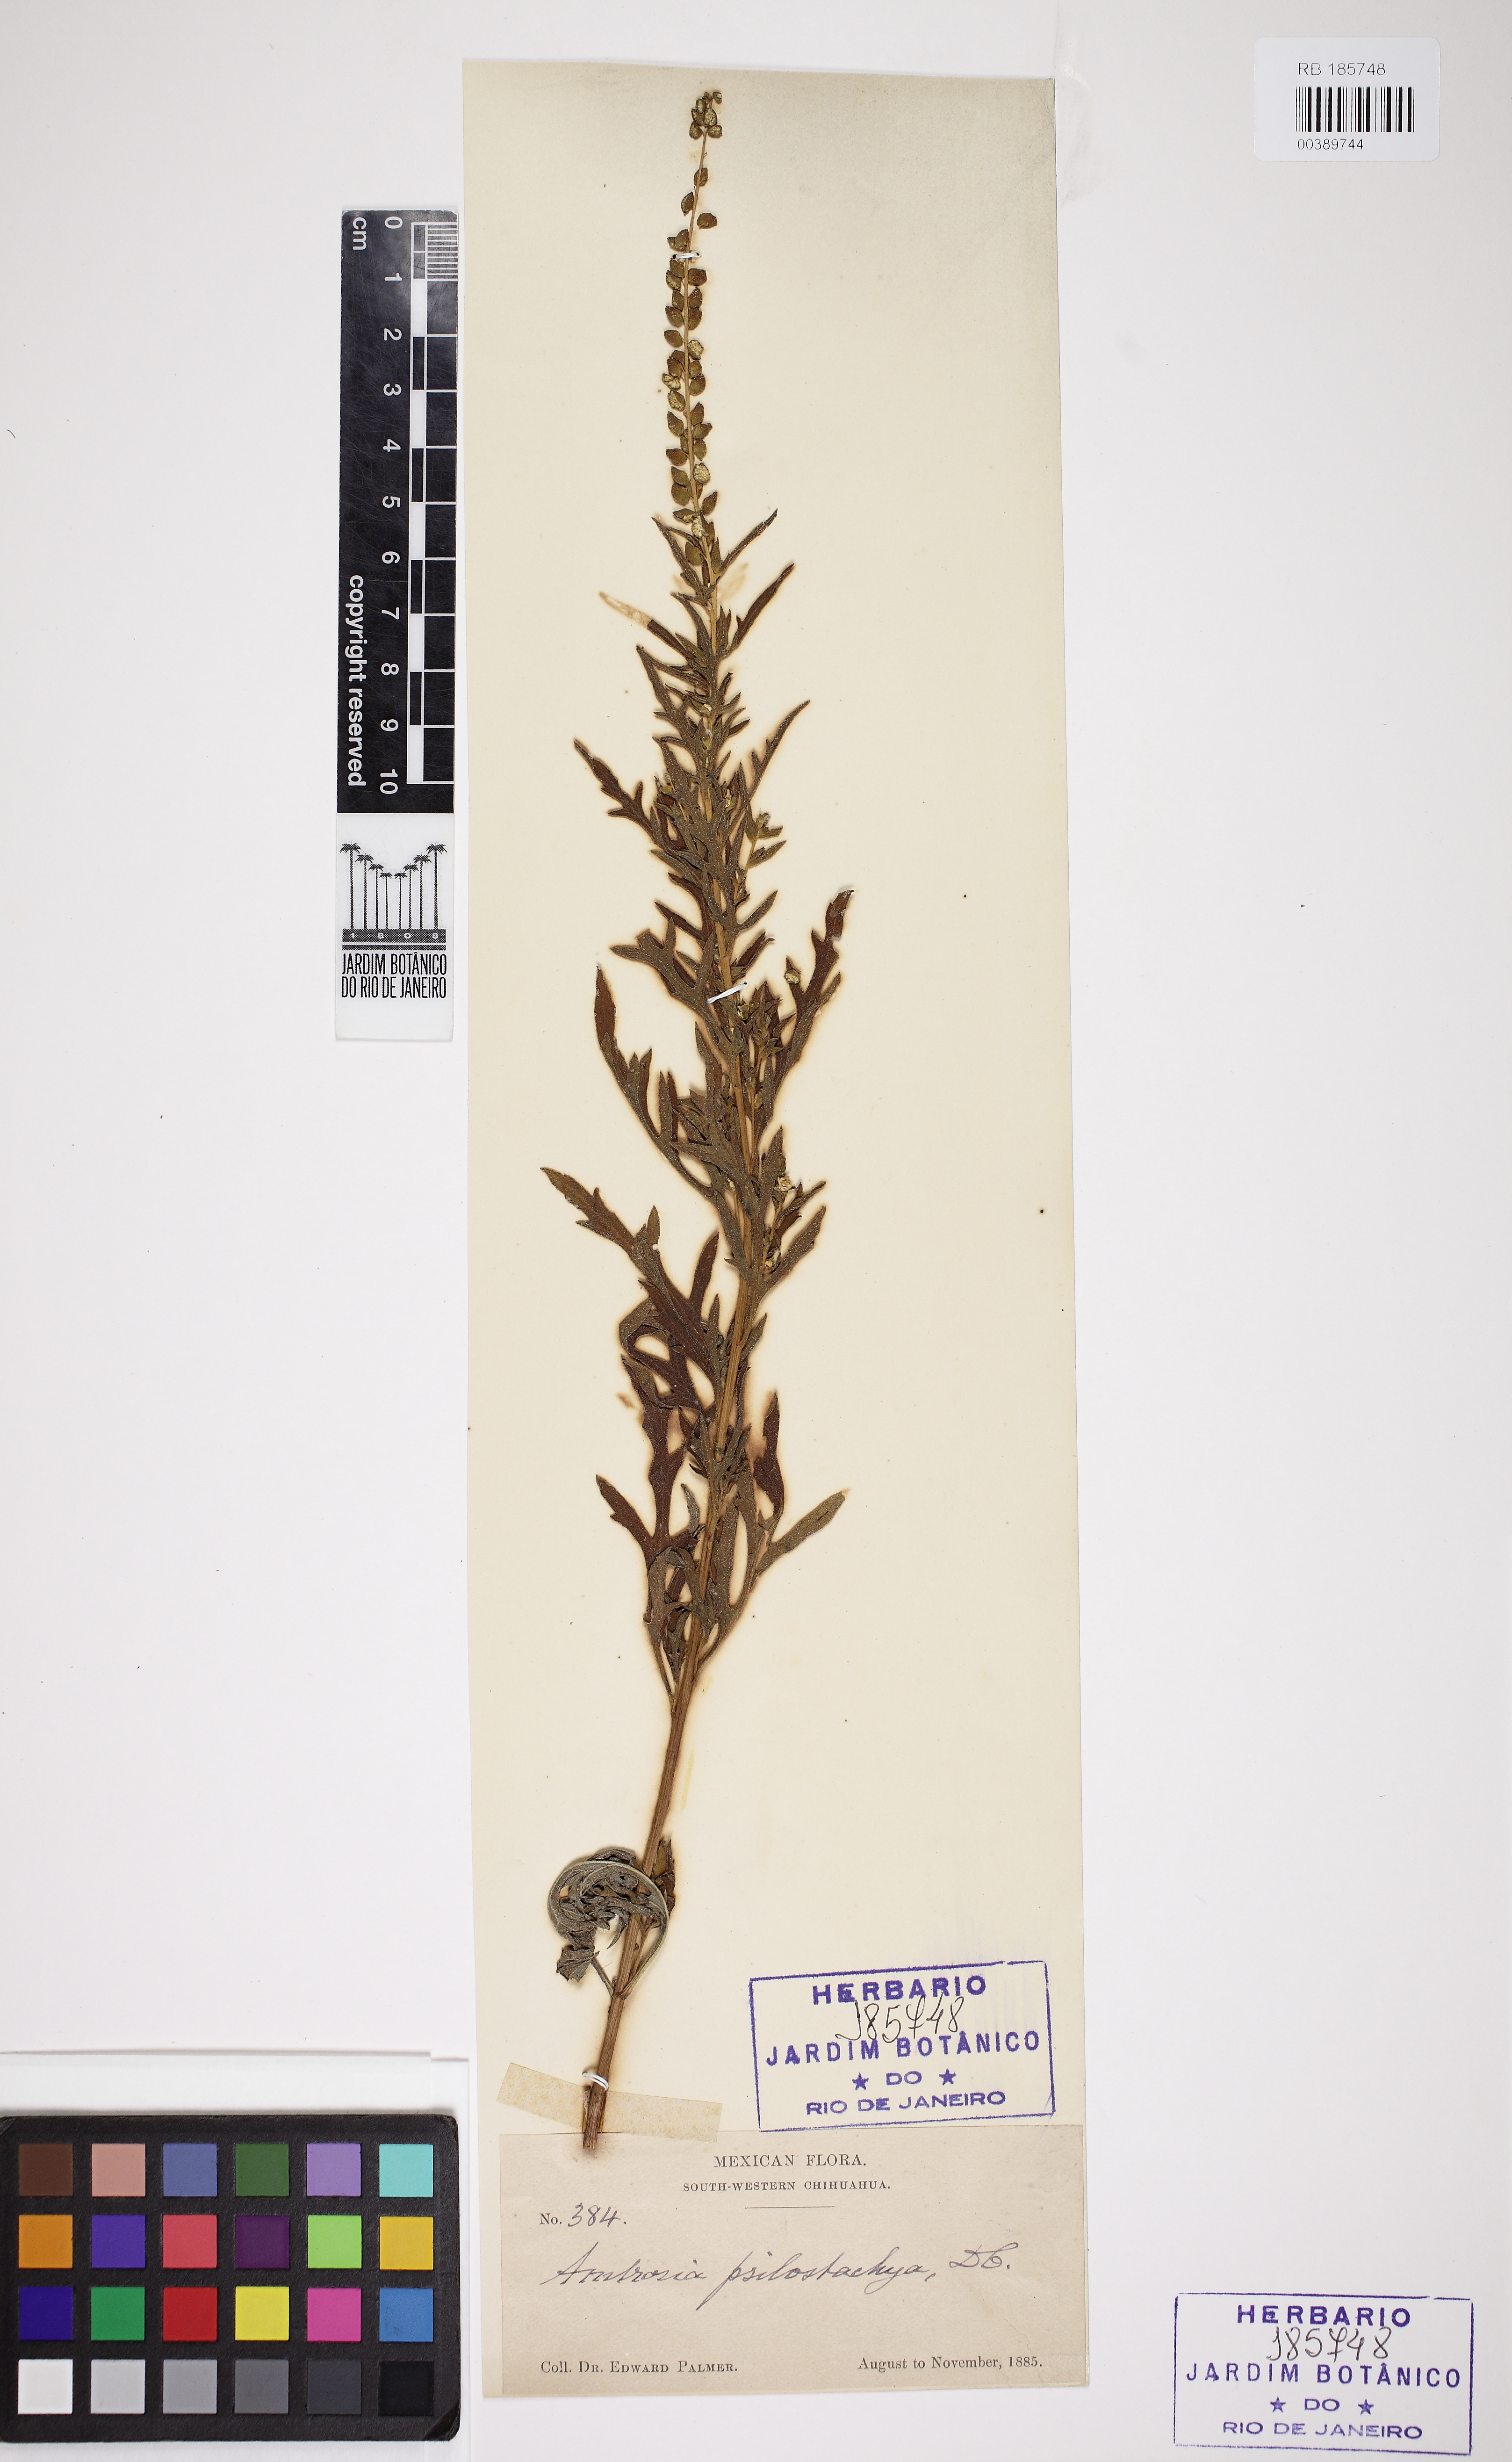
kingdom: Plantae
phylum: Tracheophyta
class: Magnoliopsida
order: Asterales
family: Asteraceae
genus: Artemisia
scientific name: Artemisia
